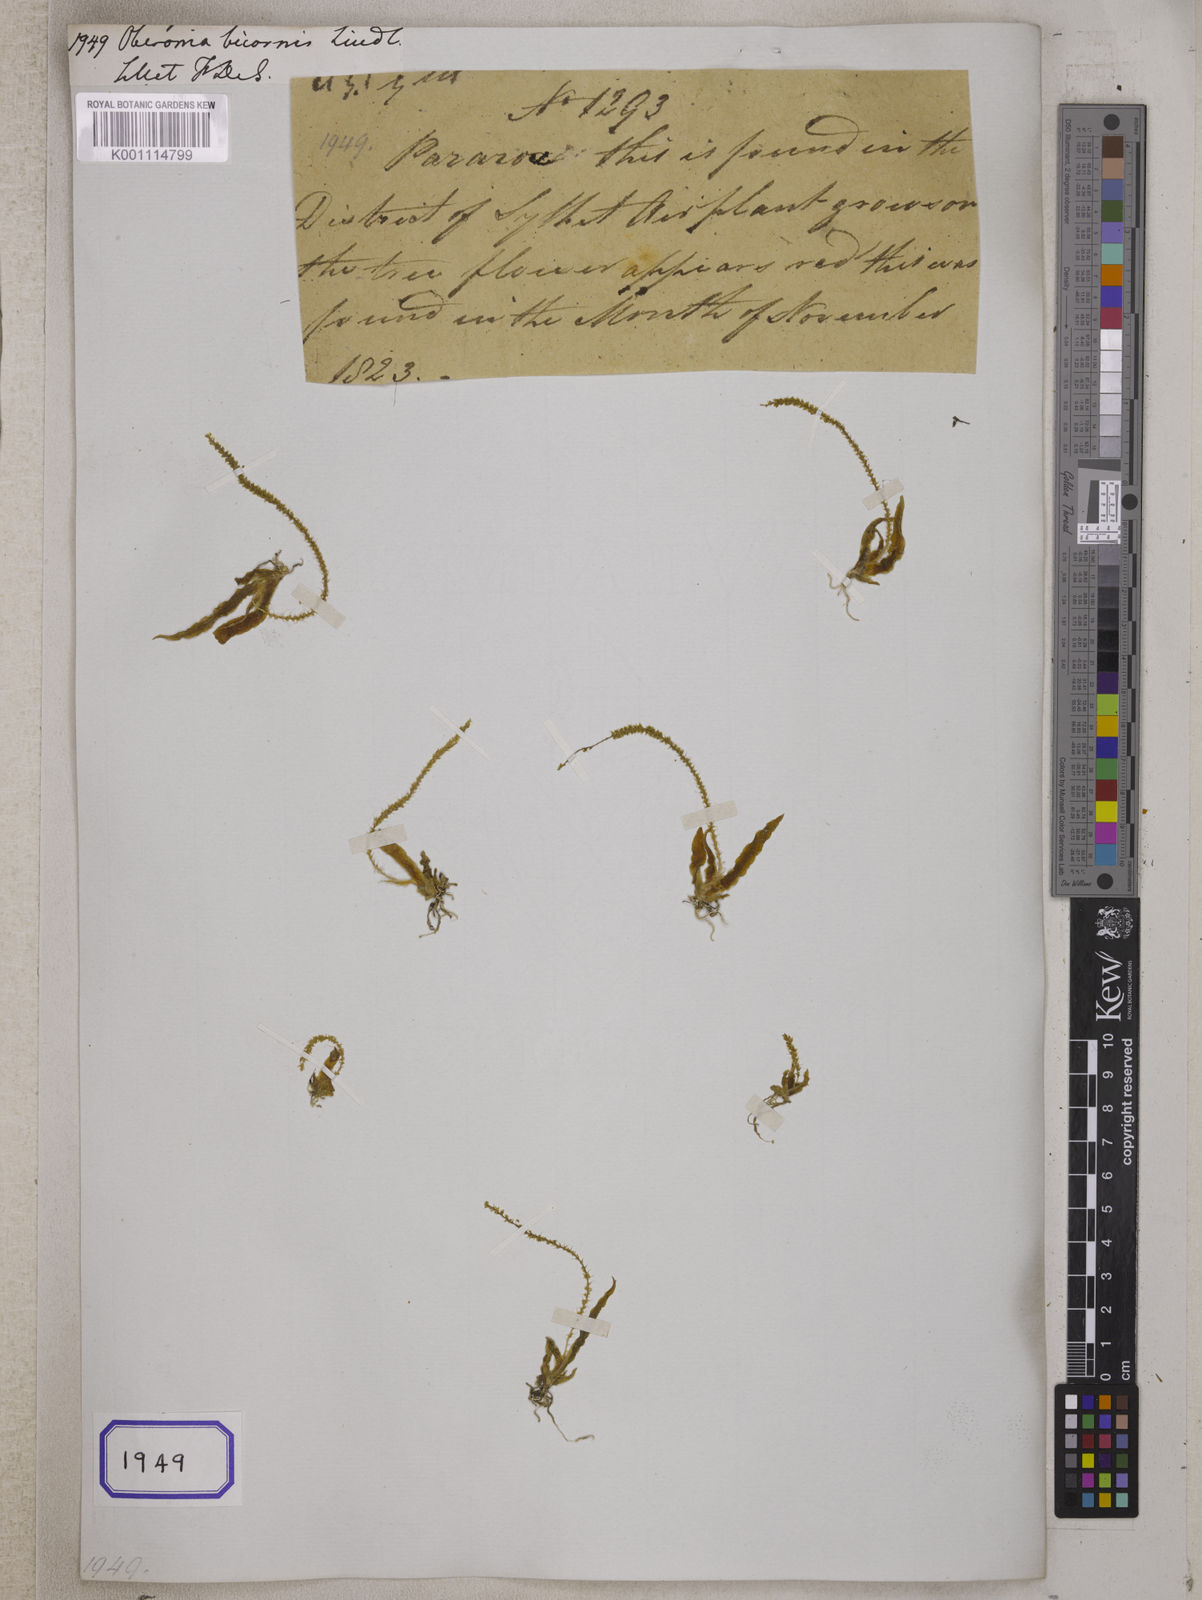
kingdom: Plantae
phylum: Tracheophyta
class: Liliopsida
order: Asparagales
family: Orchidaceae
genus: Oberonia
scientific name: Oberonia bicornis
